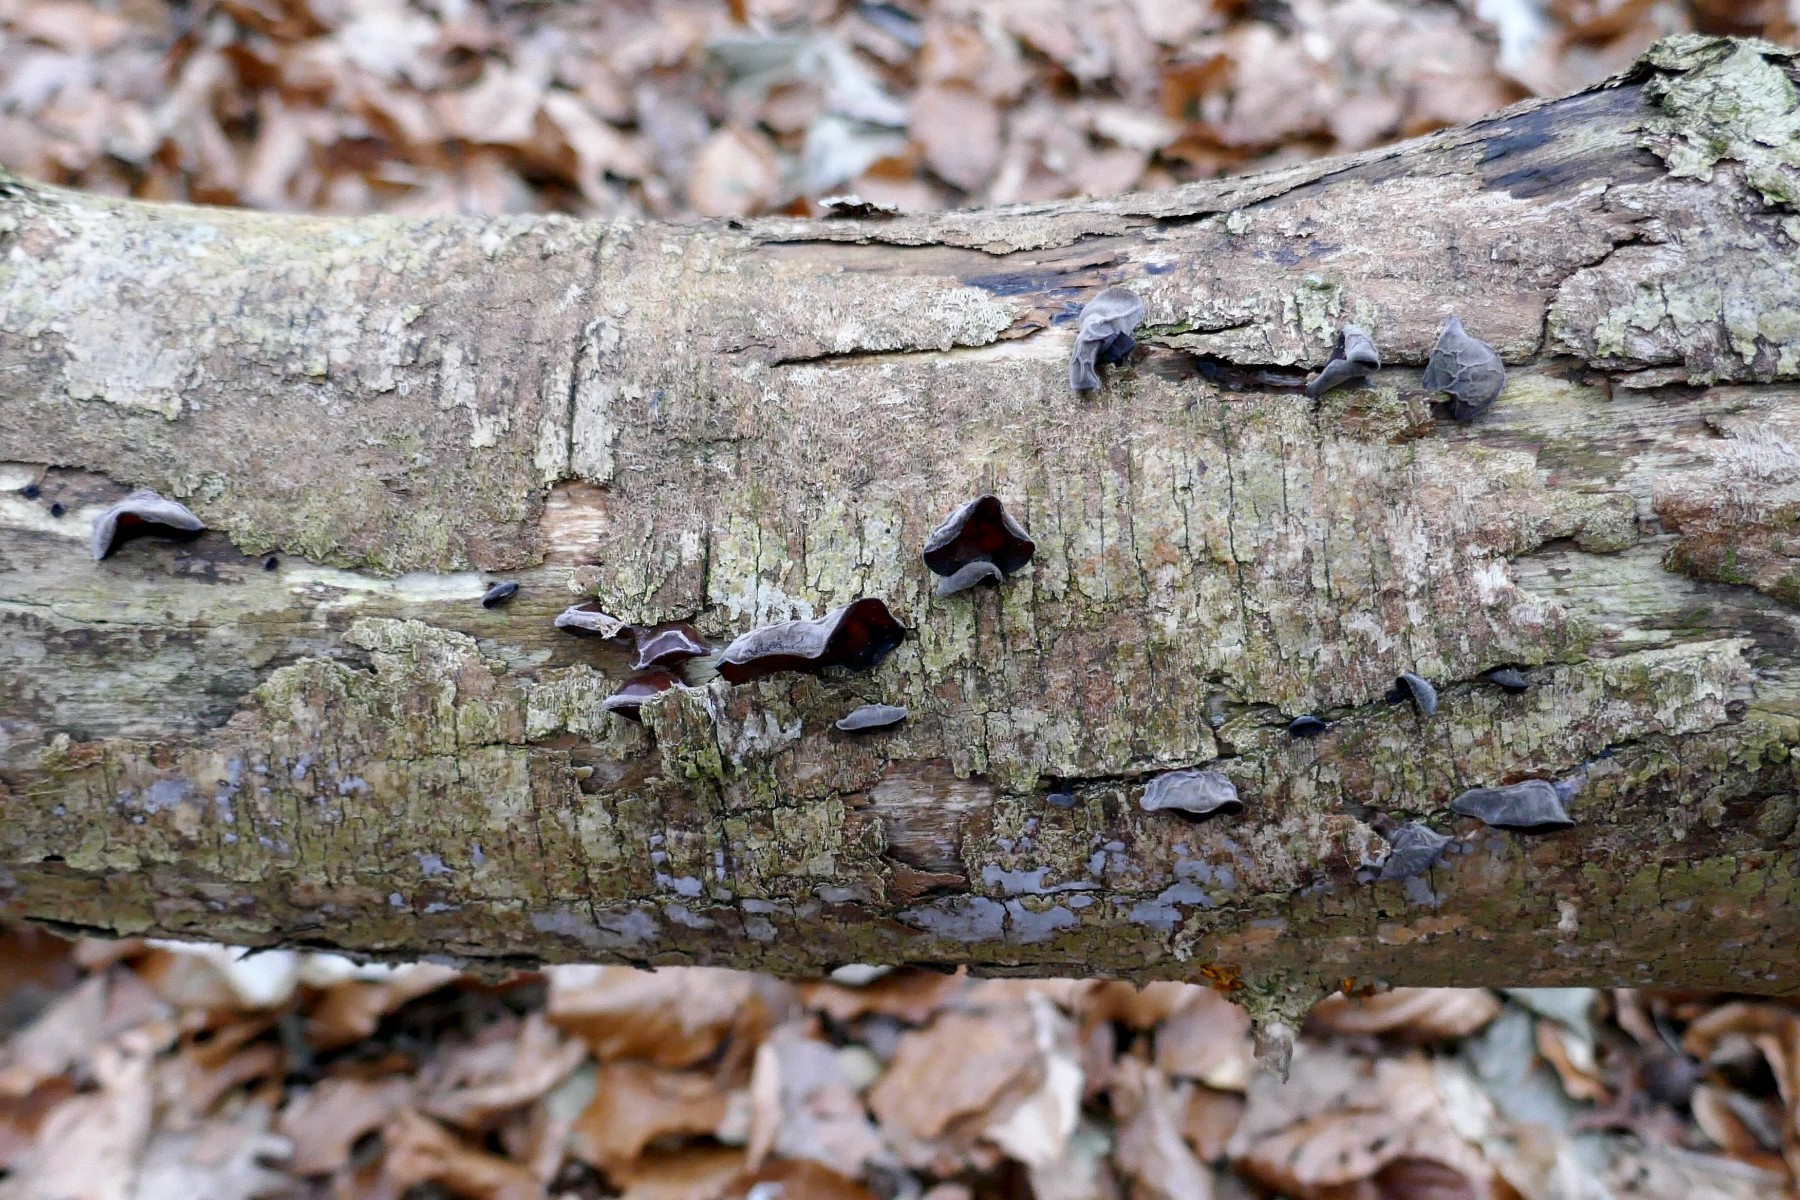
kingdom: Fungi
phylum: Basidiomycota
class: Agaricomycetes
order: Auriculariales
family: Auriculariaceae
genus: Auricularia
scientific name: Auricularia auricula-judae
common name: almindelig judasøre
